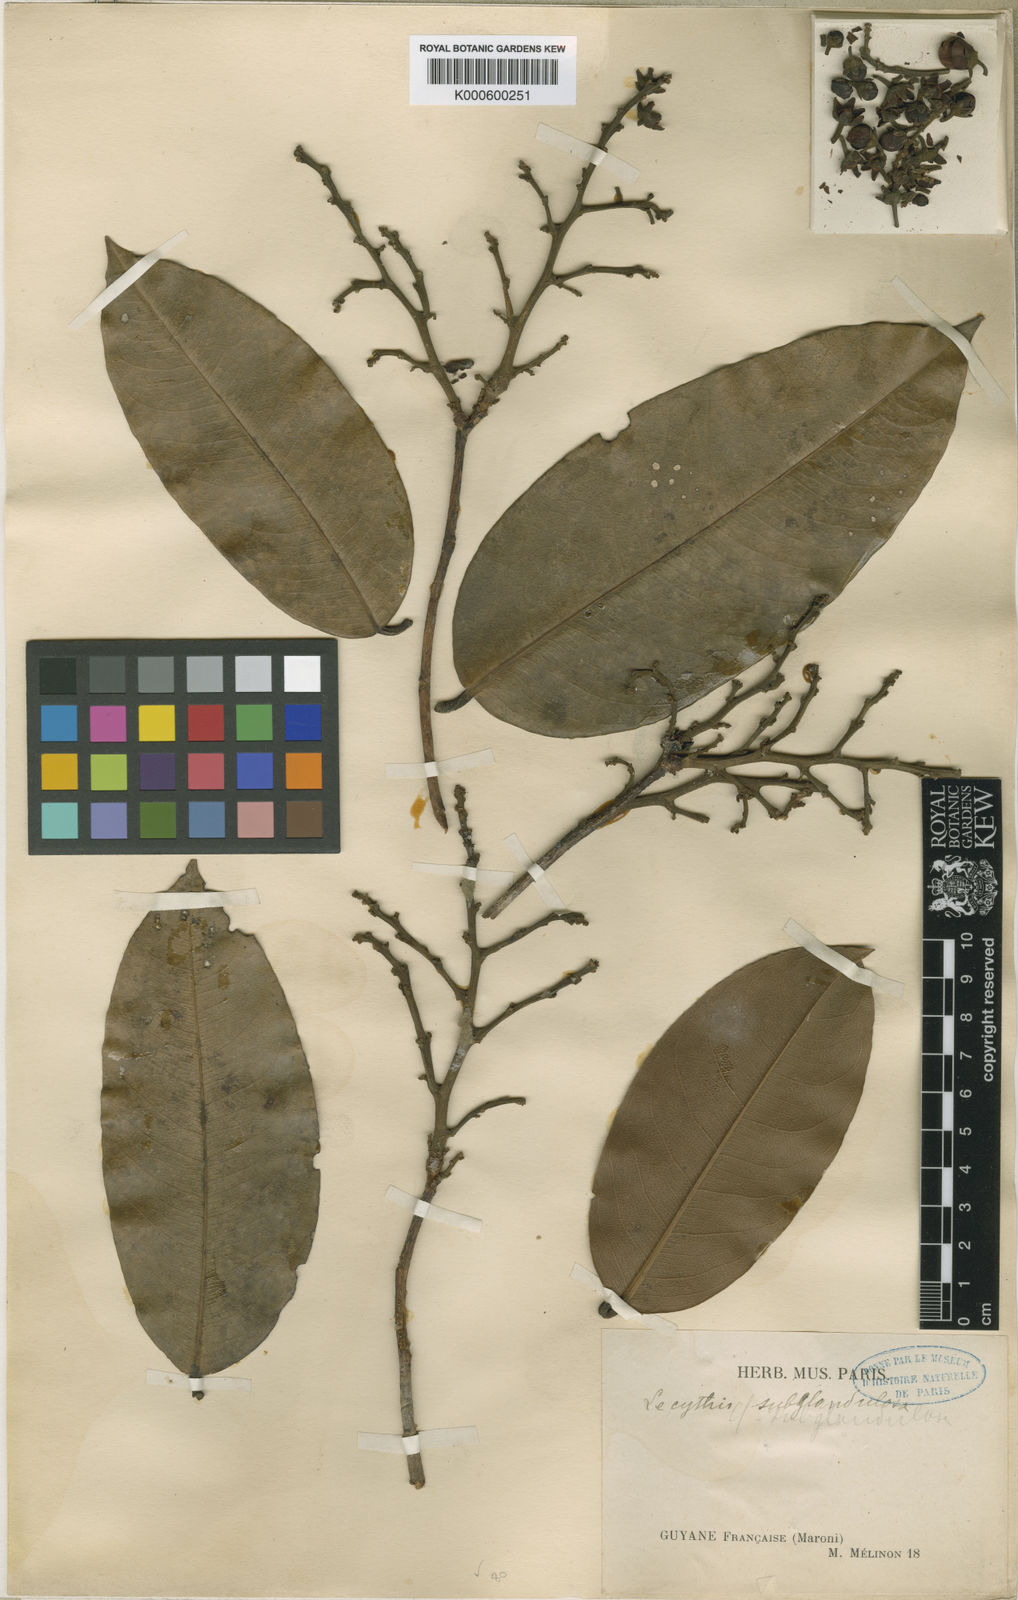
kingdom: Plantae
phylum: Tracheophyta
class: Magnoliopsida
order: Ericales
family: Lecythidaceae
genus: Eschweilera
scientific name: Eschweilera micrantha
